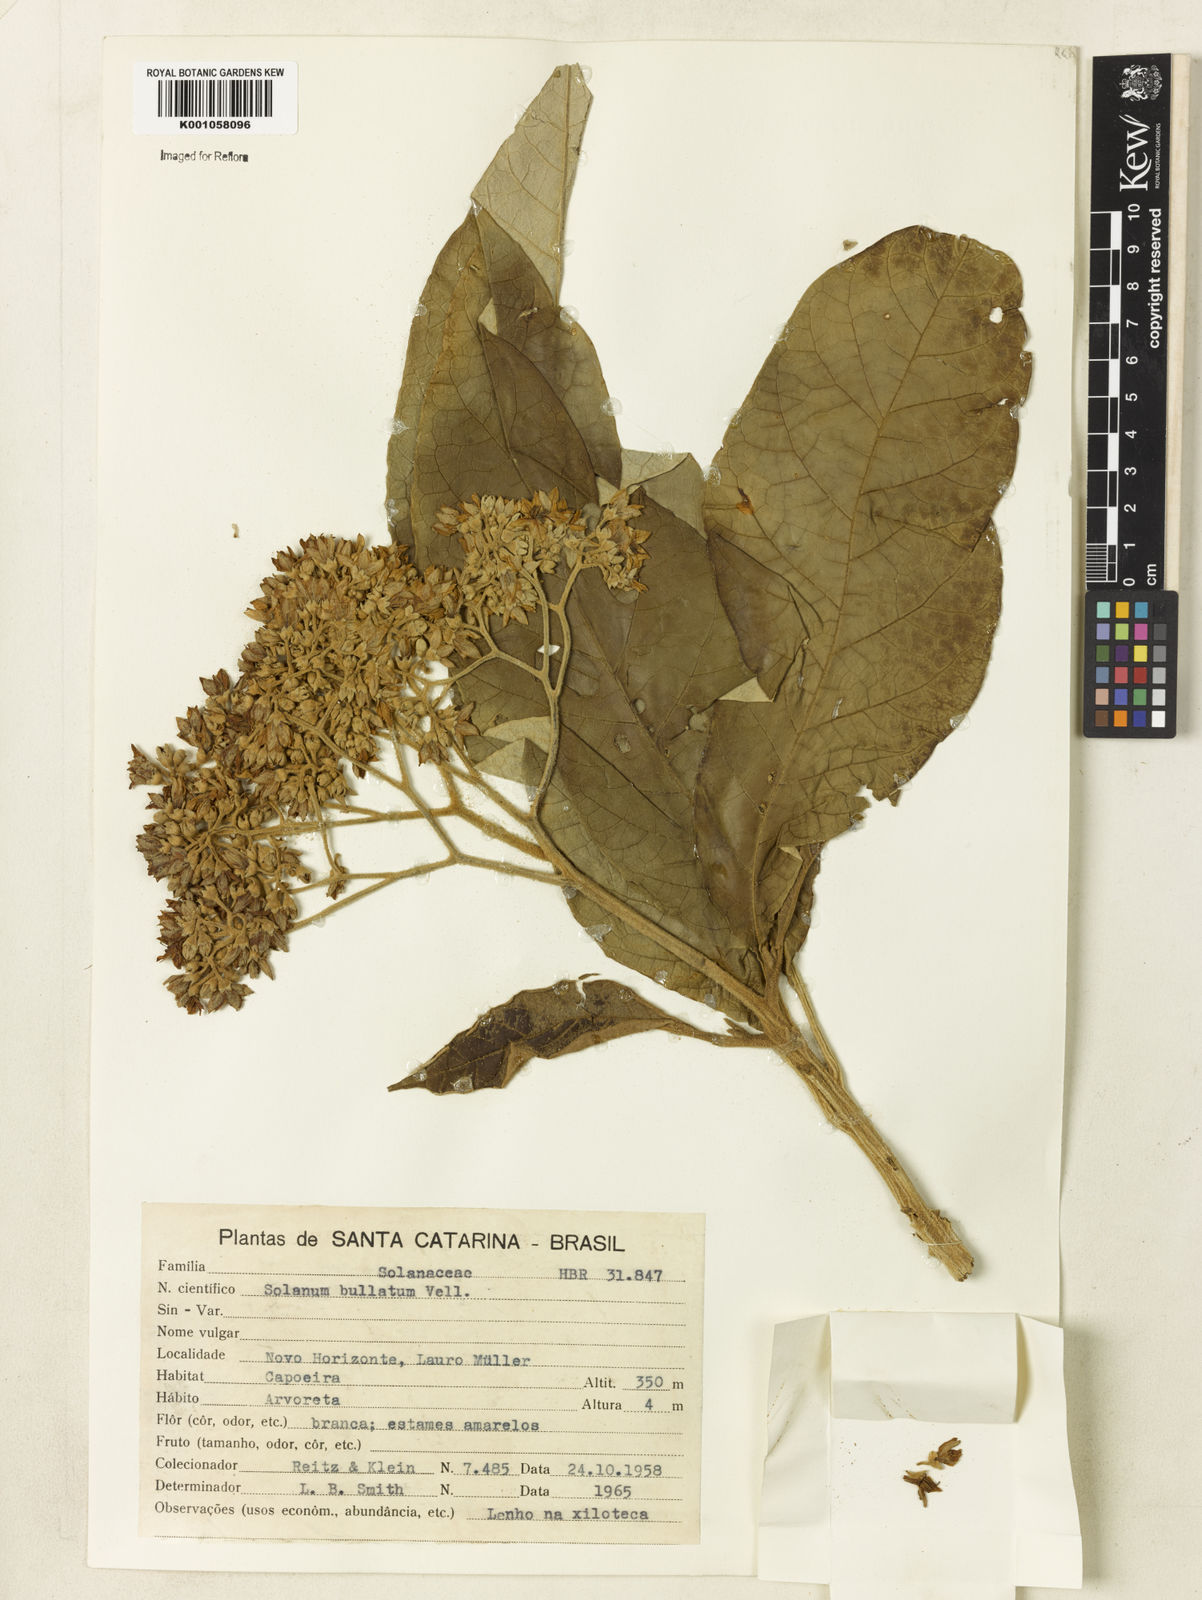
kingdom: Plantae
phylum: Tracheophyta
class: Magnoliopsida
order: Solanales
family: Solanaceae
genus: Solanum
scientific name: Solanum bullatum
